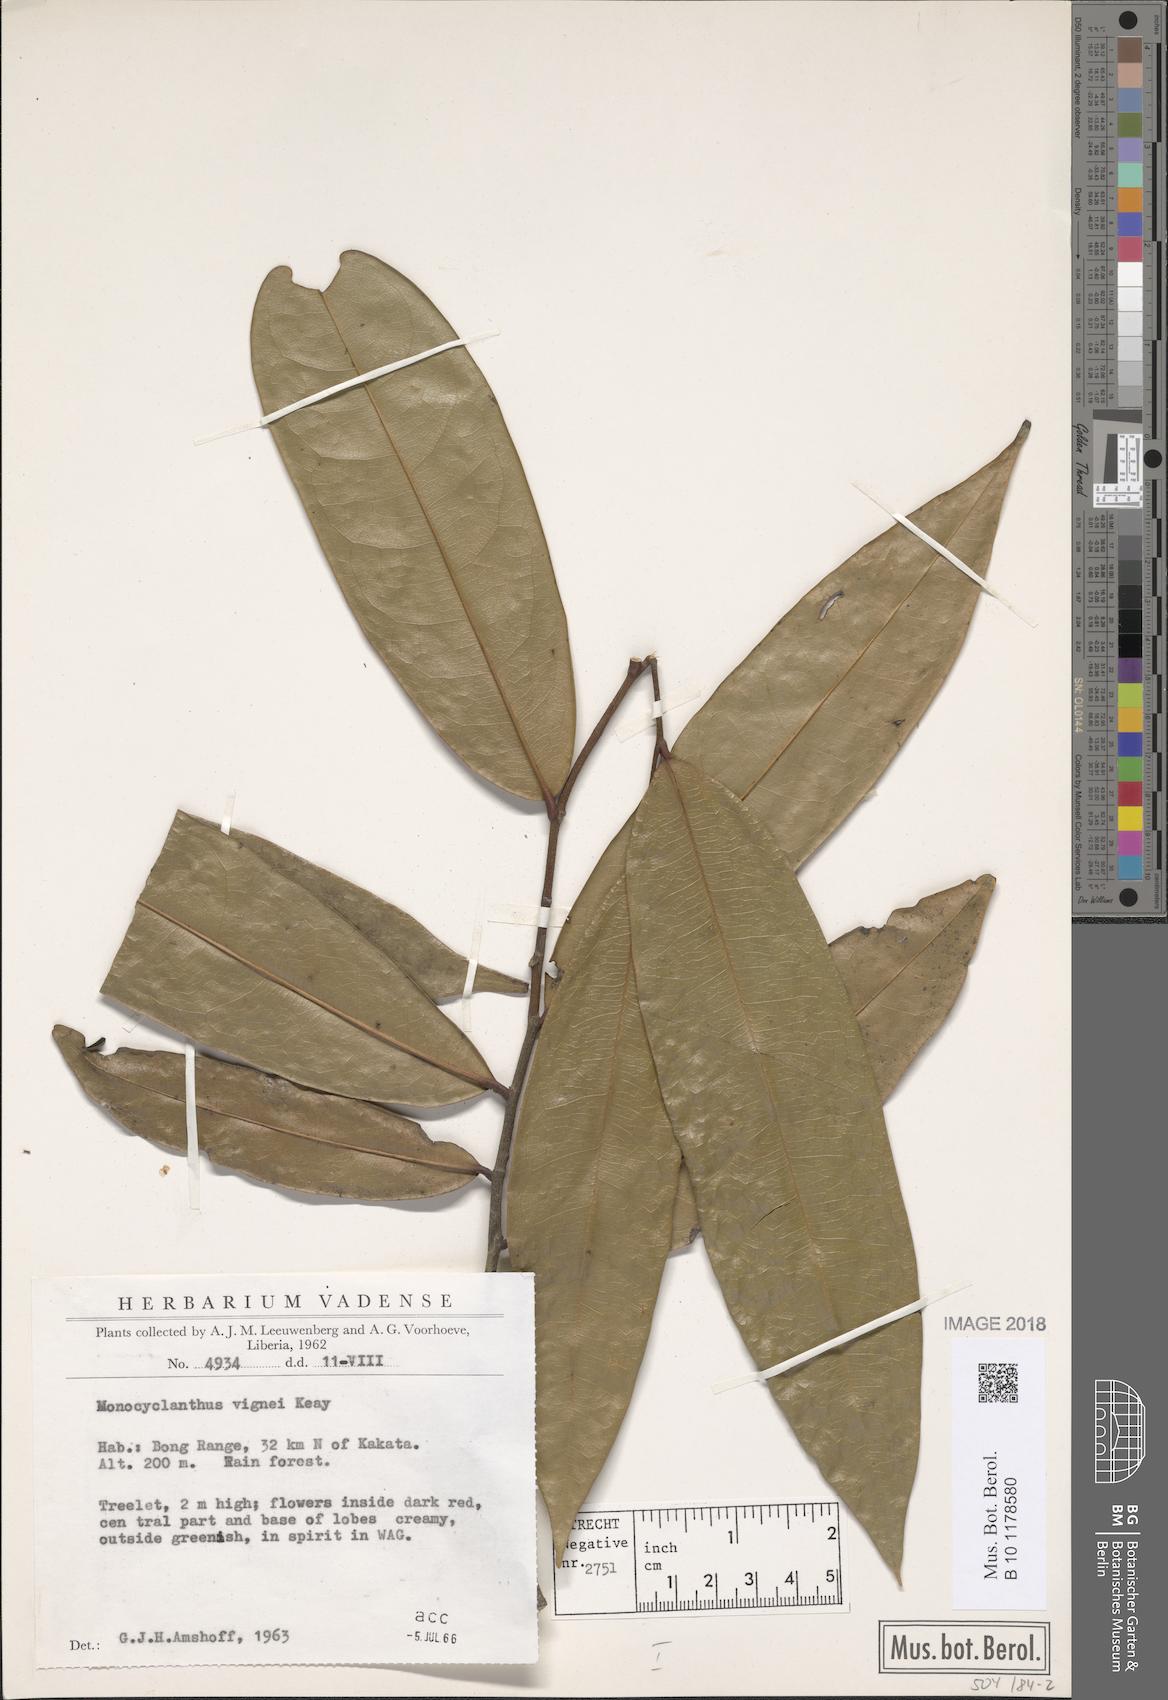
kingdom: Plantae
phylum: Tracheophyta
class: Magnoliopsida
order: Magnoliales
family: Annonaceae
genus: Monocyclanthus
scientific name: Monocyclanthus vignei
